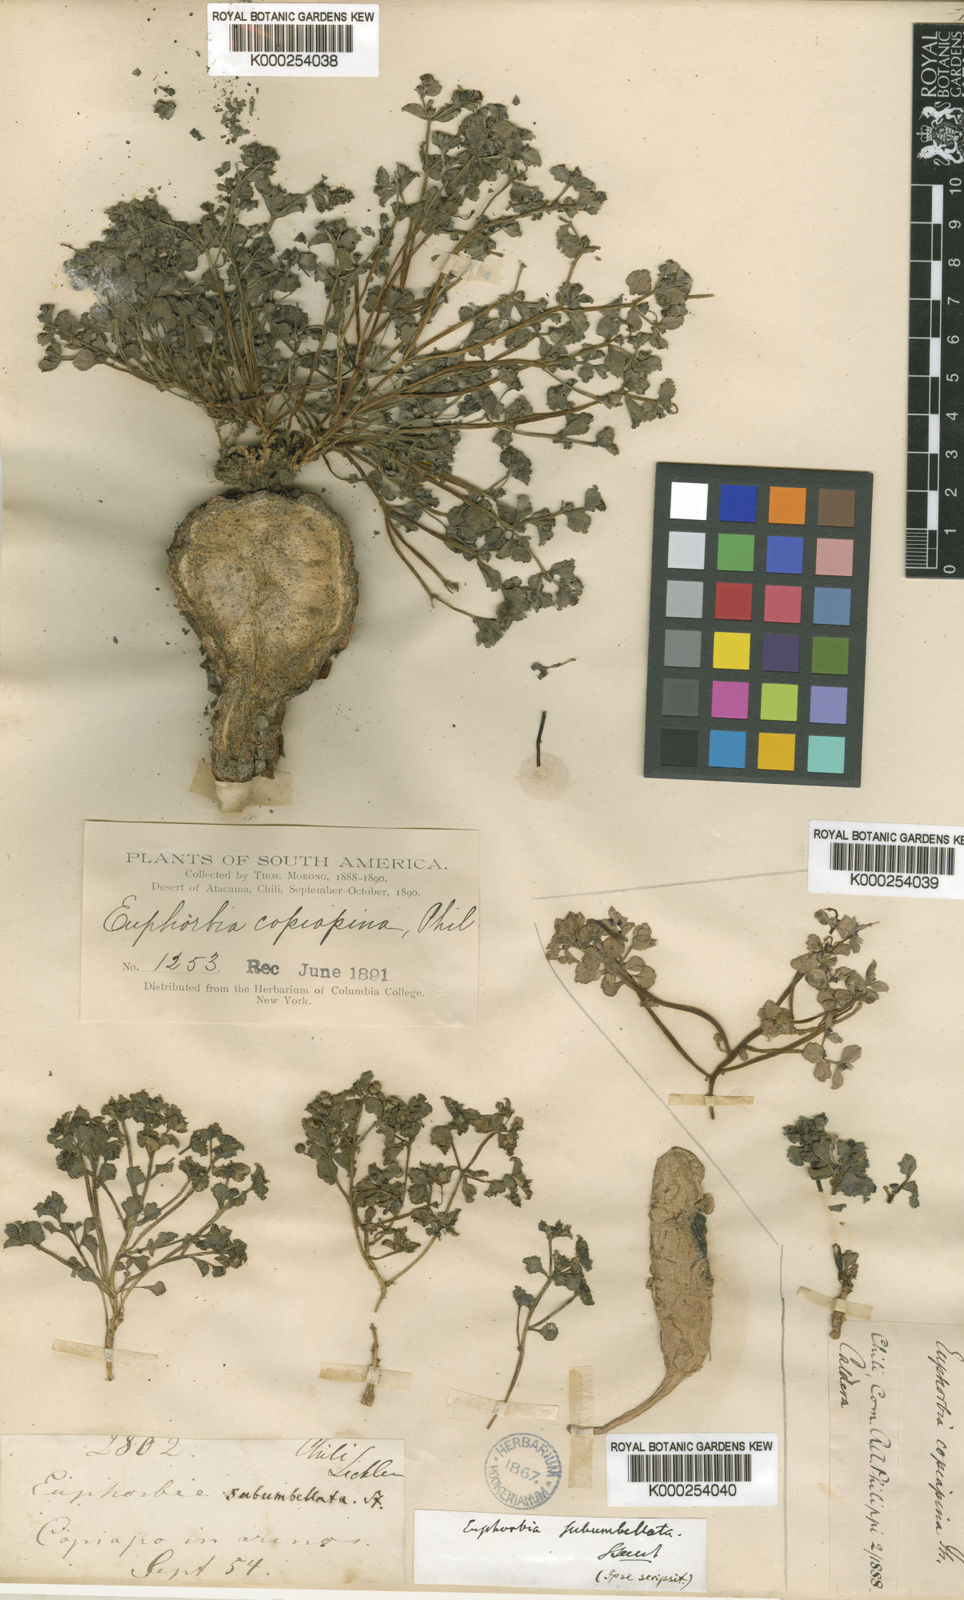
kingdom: Plantae
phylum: Tracheophyta
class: Magnoliopsida
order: Malpighiales
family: Euphorbiaceae
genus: Euphorbia
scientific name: Euphorbia copiapina
